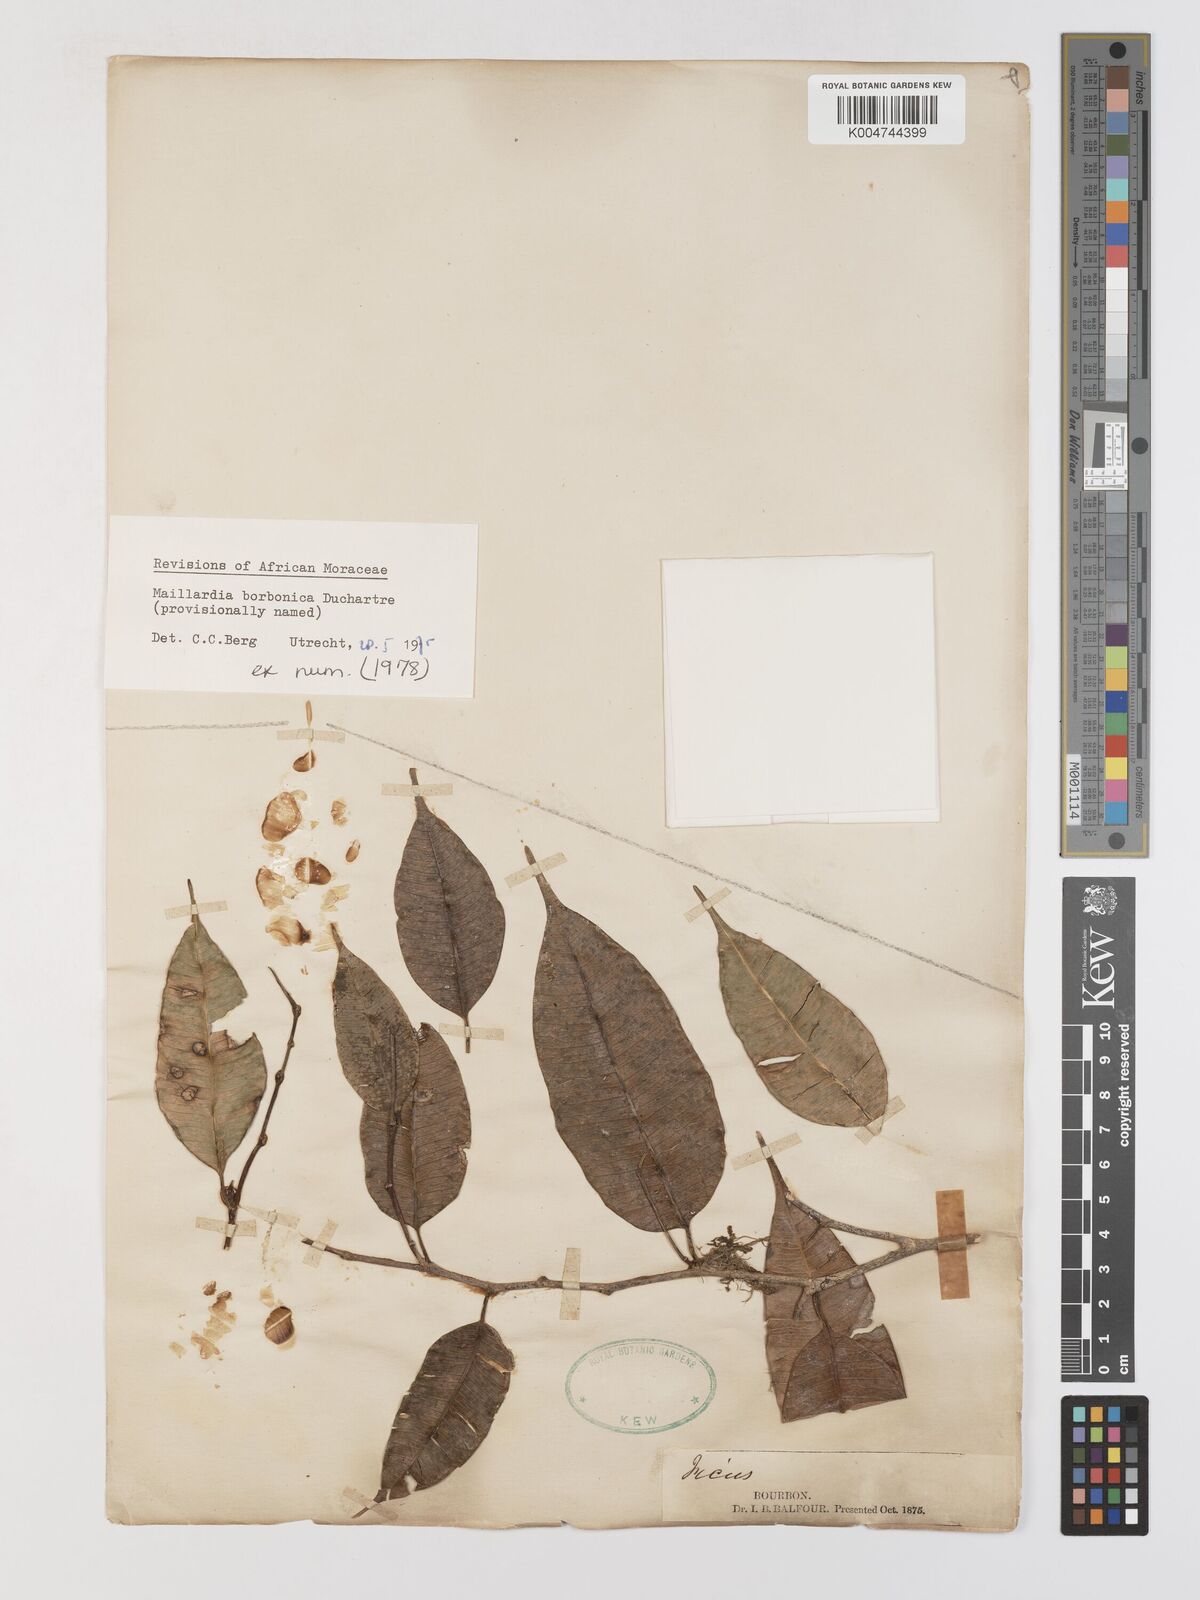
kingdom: Plantae
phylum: Tracheophyta
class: Magnoliopsida
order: Rosales
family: Moraceae
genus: Maillardia
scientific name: Maillardia borbonica
